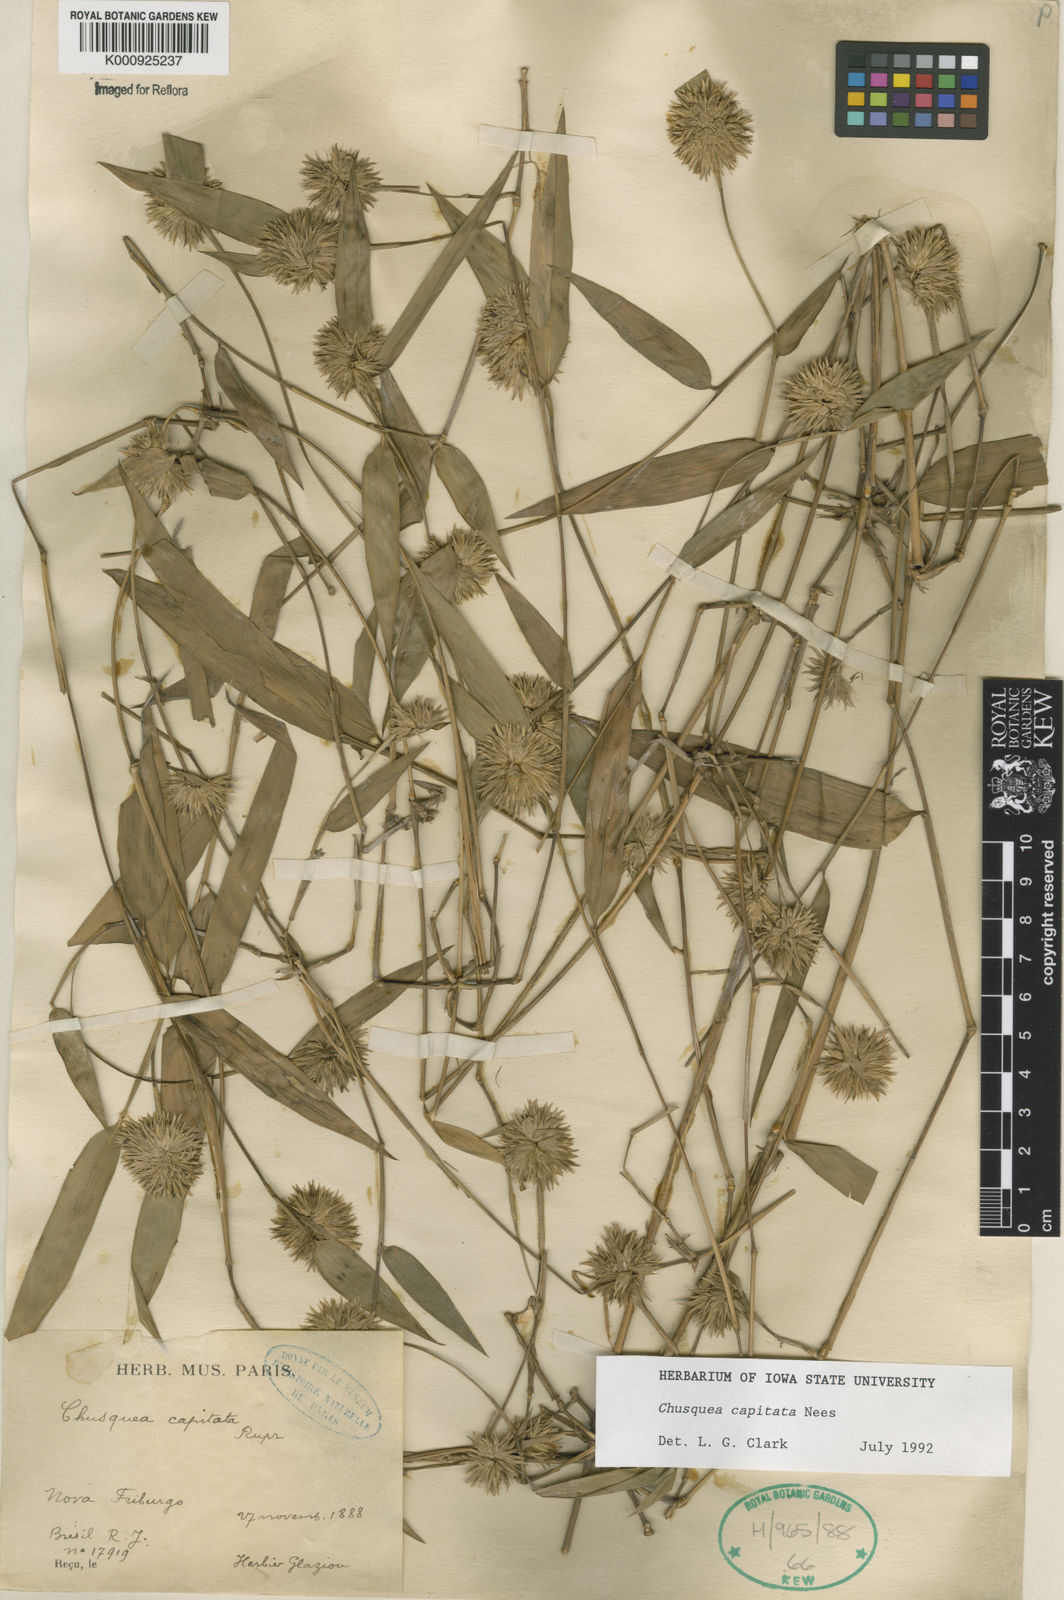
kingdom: Plantae
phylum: Tracheophyta
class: Liliopsida
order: Poales
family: Poaceae
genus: Chusquea
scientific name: Chusquea capitata
